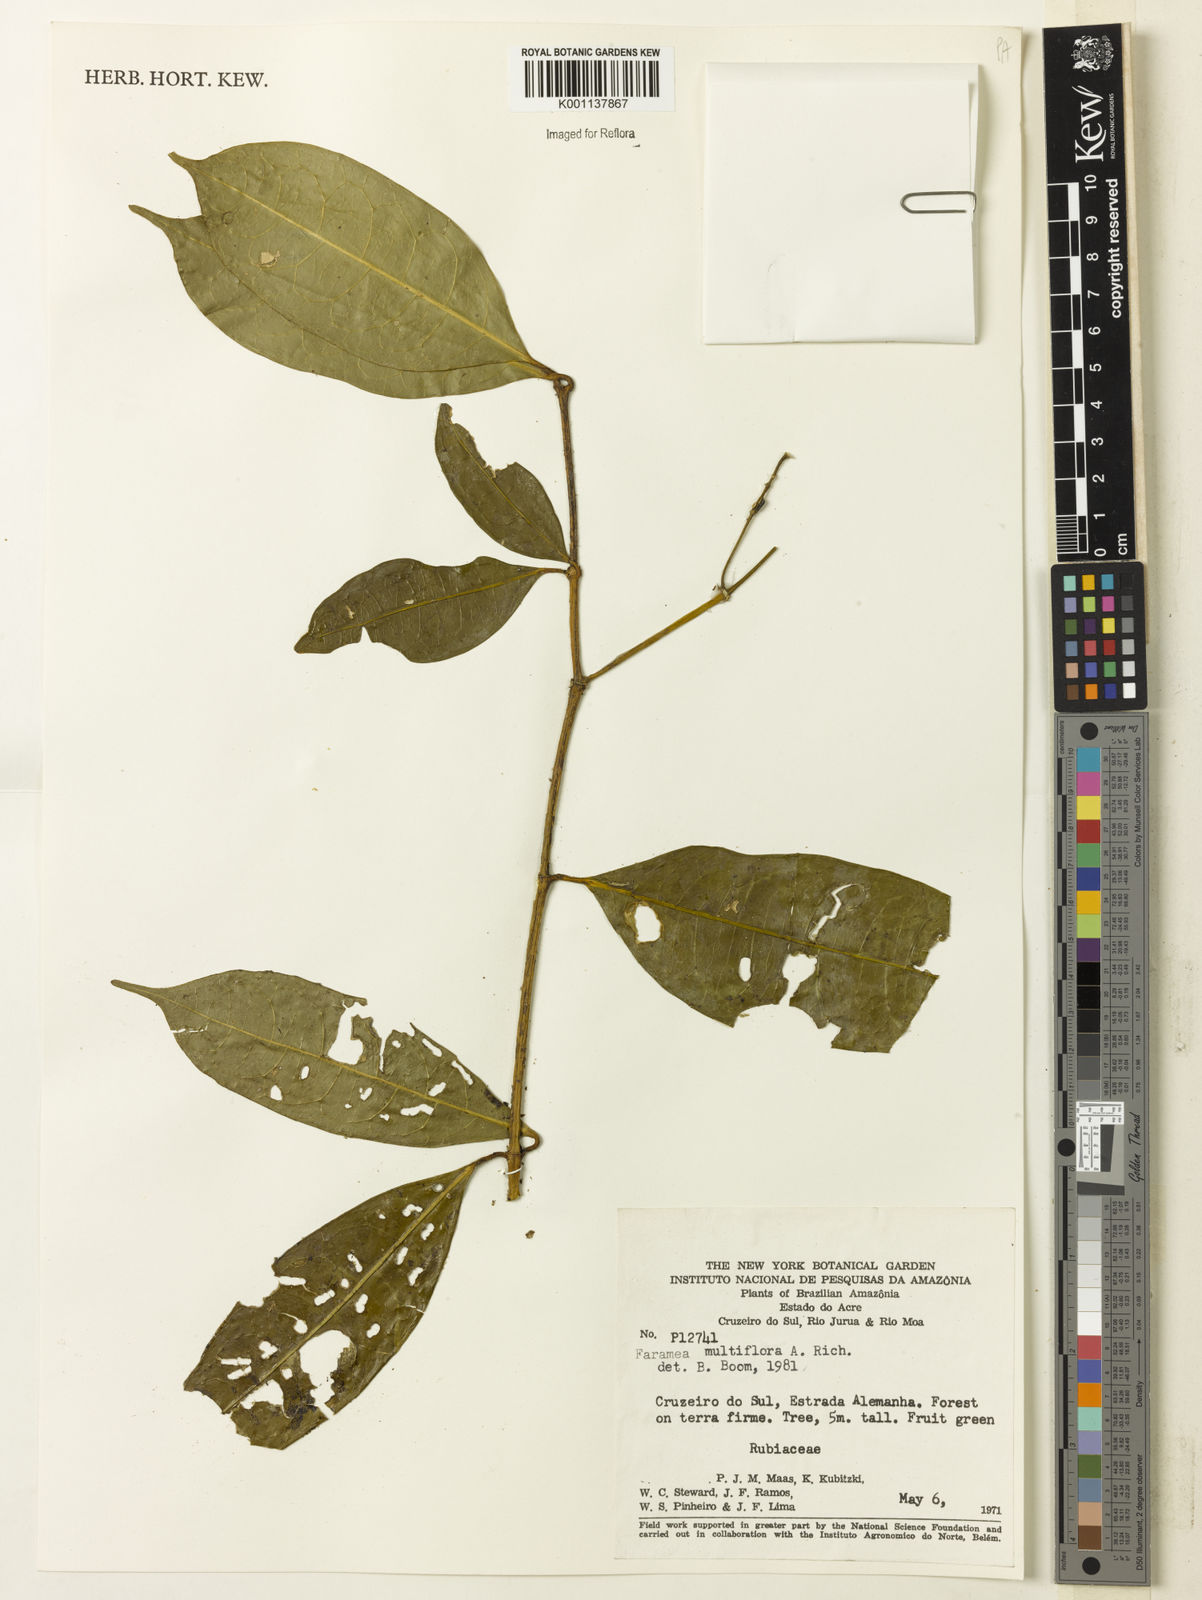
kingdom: Plantae
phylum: Tracheophyta
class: Magnoliopsida
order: Gentianales
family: Rubiaceae
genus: Faramea
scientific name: Faramea multiflora
